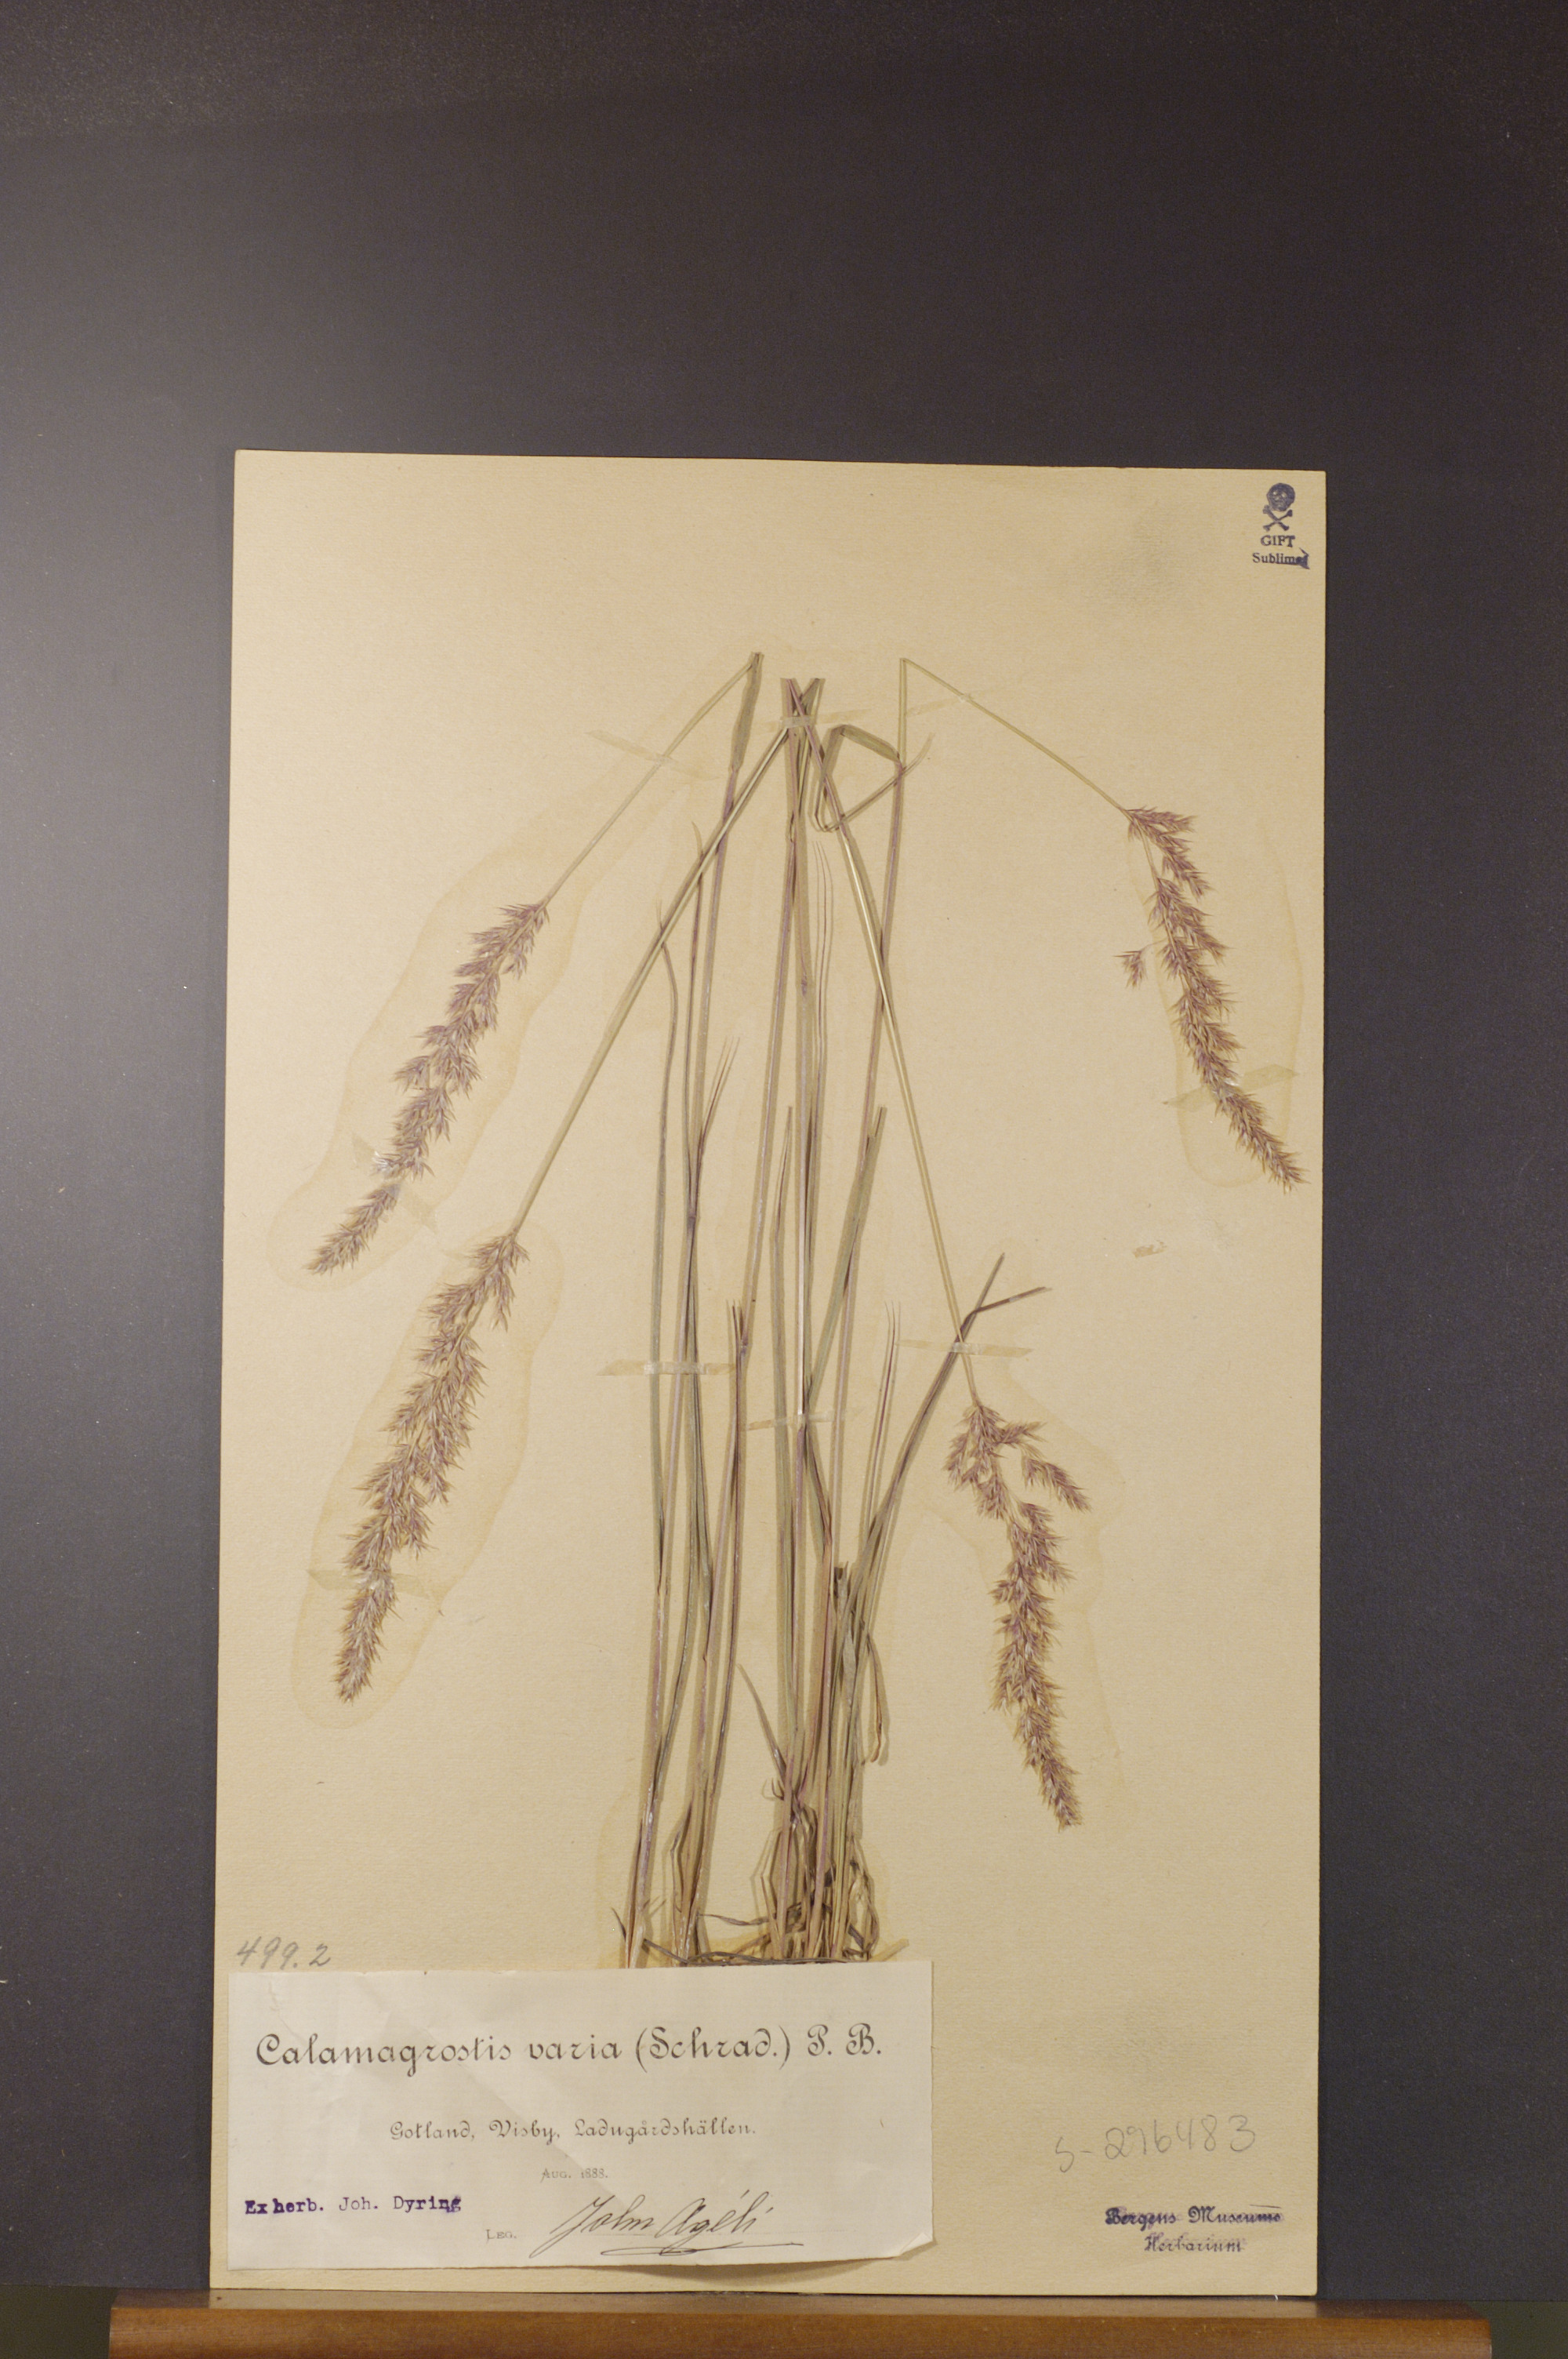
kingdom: Plantae
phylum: Tracheophyta
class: Liliopsida
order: Poales
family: Poaceae
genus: Calamagrostis
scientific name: Calamagrostis varia
